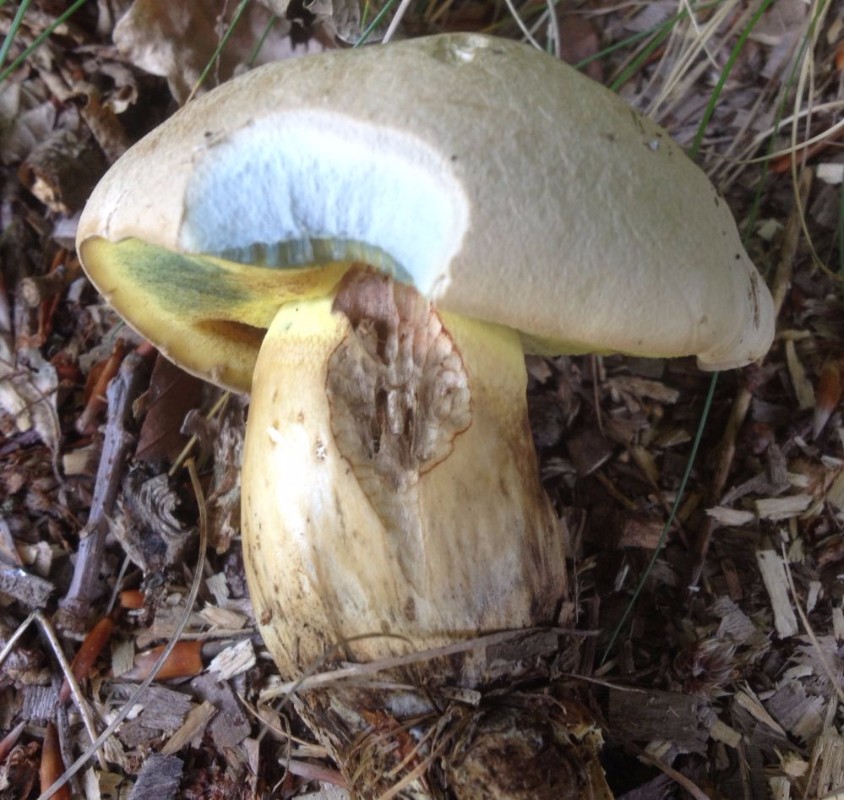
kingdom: Fungi
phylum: Basidiomycota
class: Agaricomycetes
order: Boletales
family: Boletaceae
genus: Caloboletus
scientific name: Caloboletus radicans
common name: rod-rørhat
